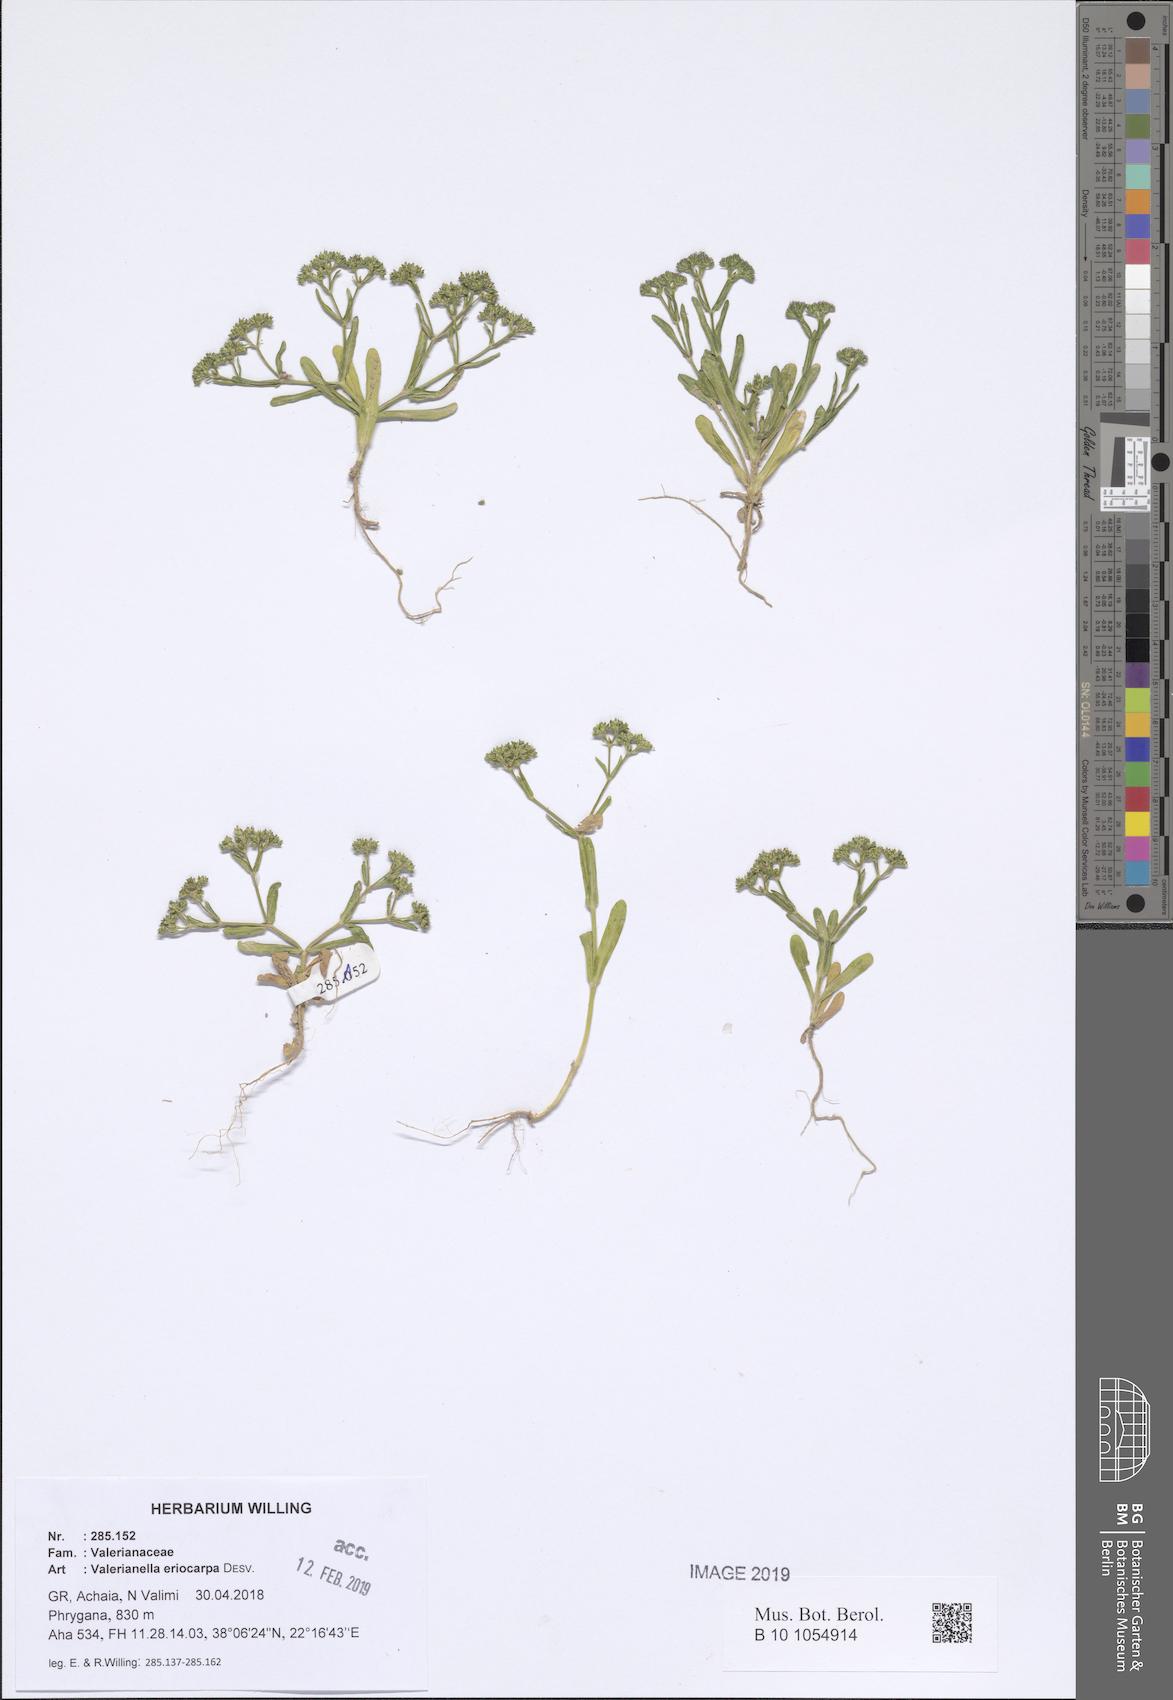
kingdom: Plantae
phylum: Tracheophyta
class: Magnoliopsida
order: Dipsacales
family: Caprifoliaceae
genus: Valerianella
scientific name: Valerianella eriocarpa
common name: Hairy-fruited cornsalad
